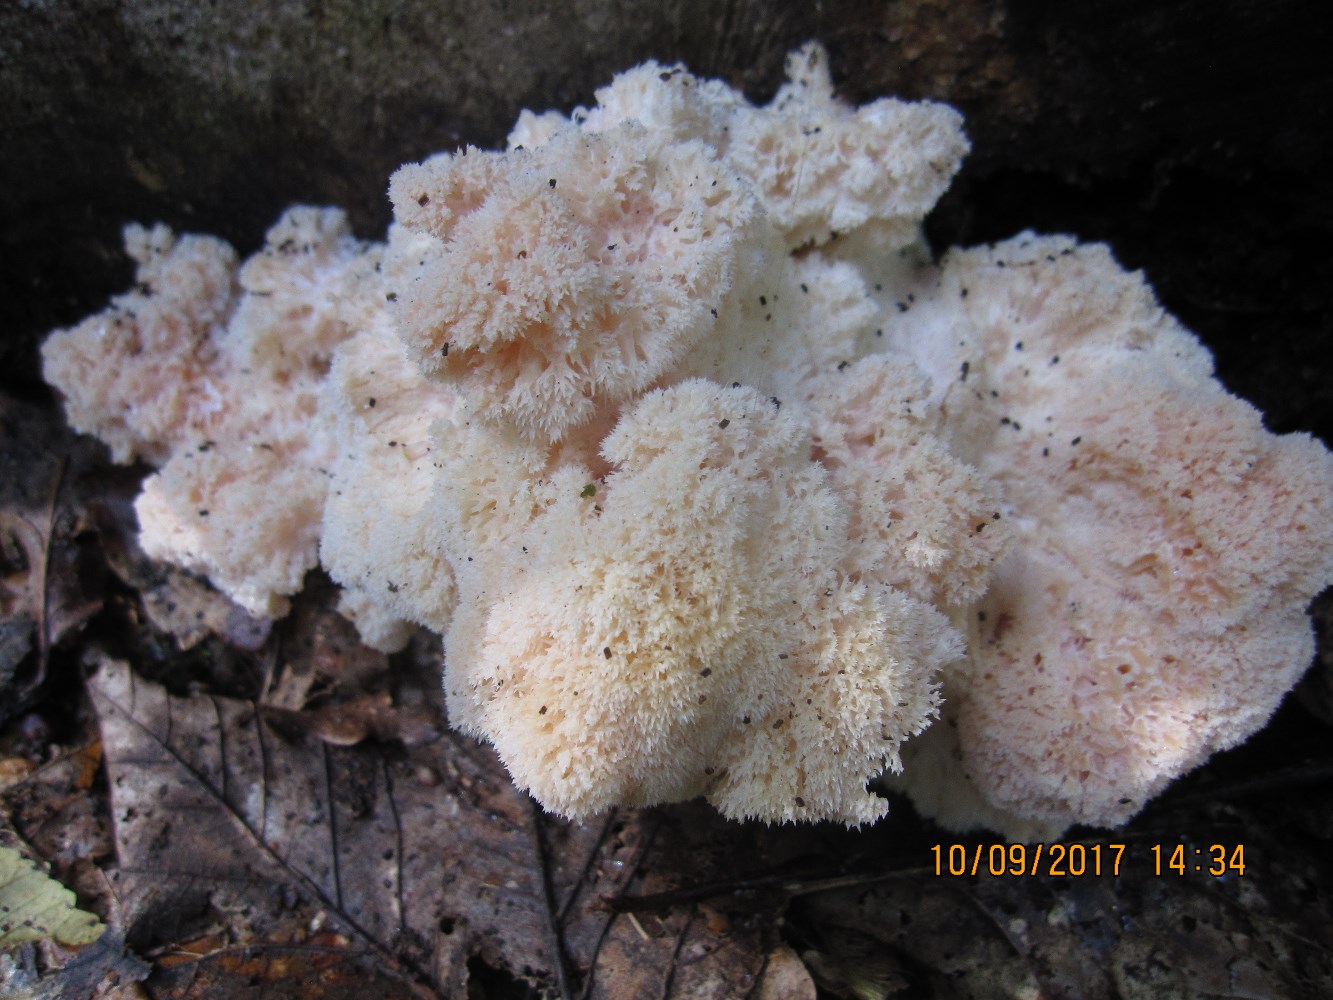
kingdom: Fungi
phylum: Basidiomycota
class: Agaricomycetes
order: Russulales
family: Hericiaceae
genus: Hericium
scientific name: Hericium erinaceus
